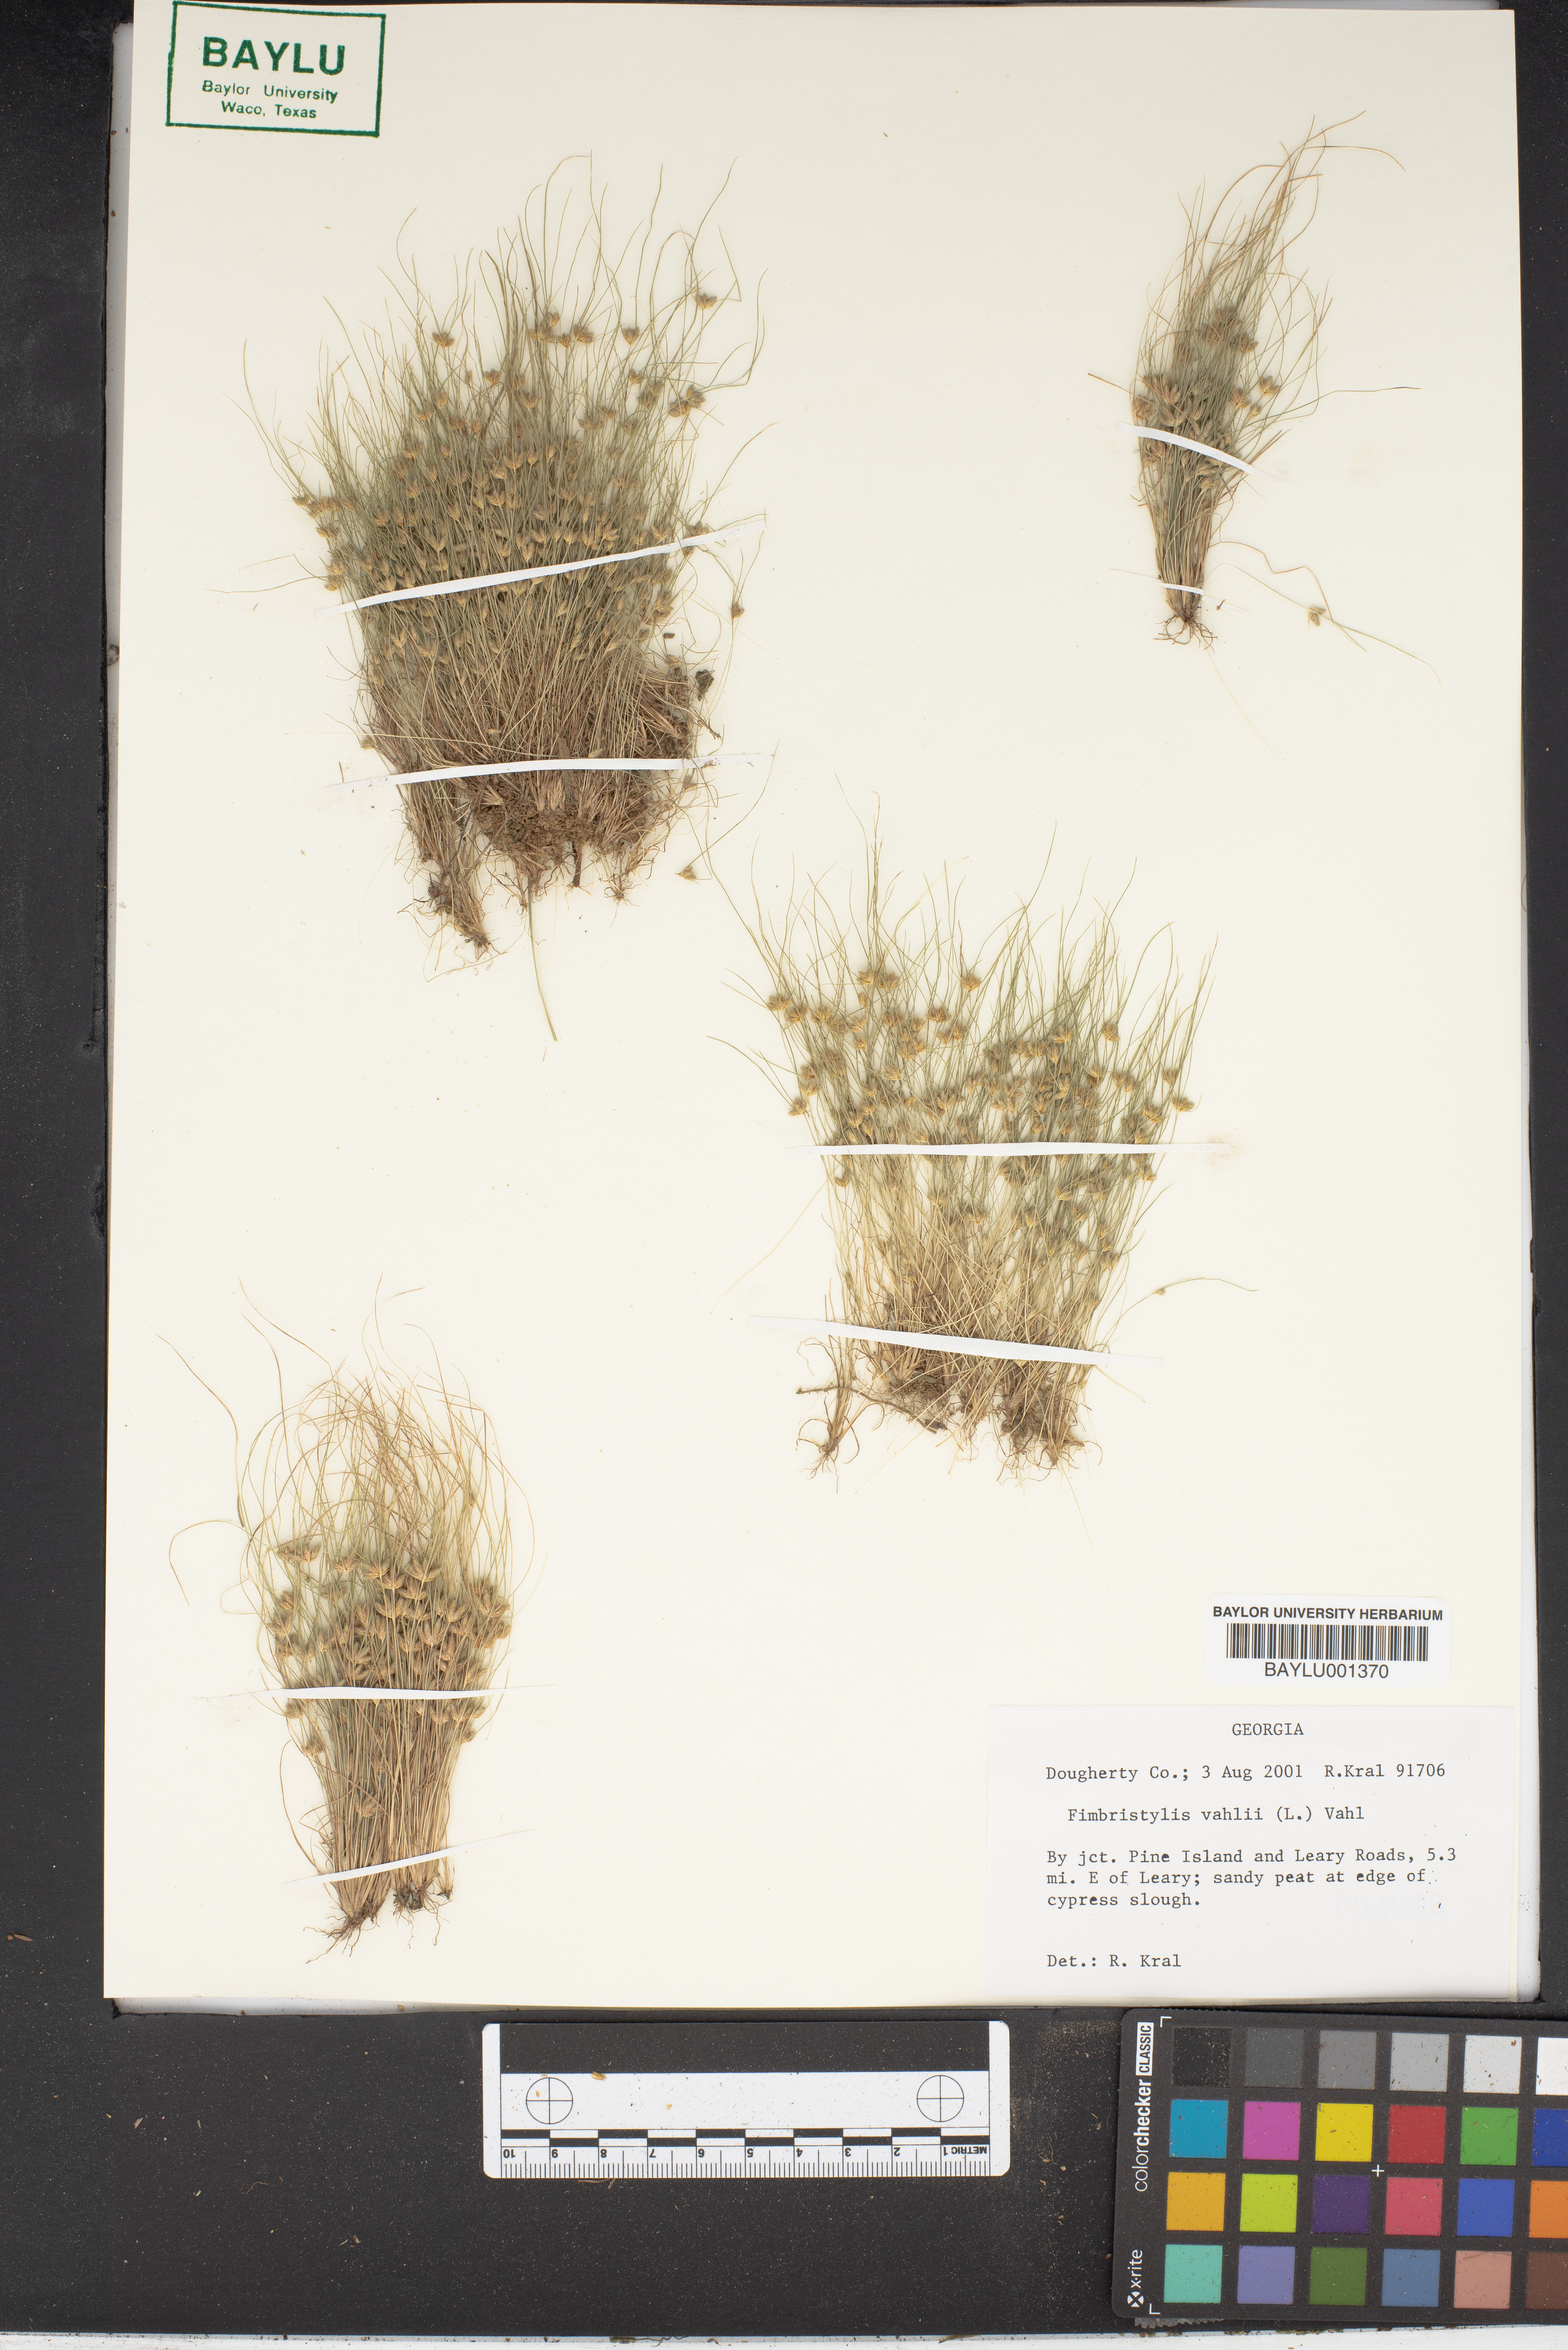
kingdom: Plantae
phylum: Tracheophyta
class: Liliopsida
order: Poales
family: Cyperaceae
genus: Fimbristylis
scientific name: Fimbristylis vahlii
